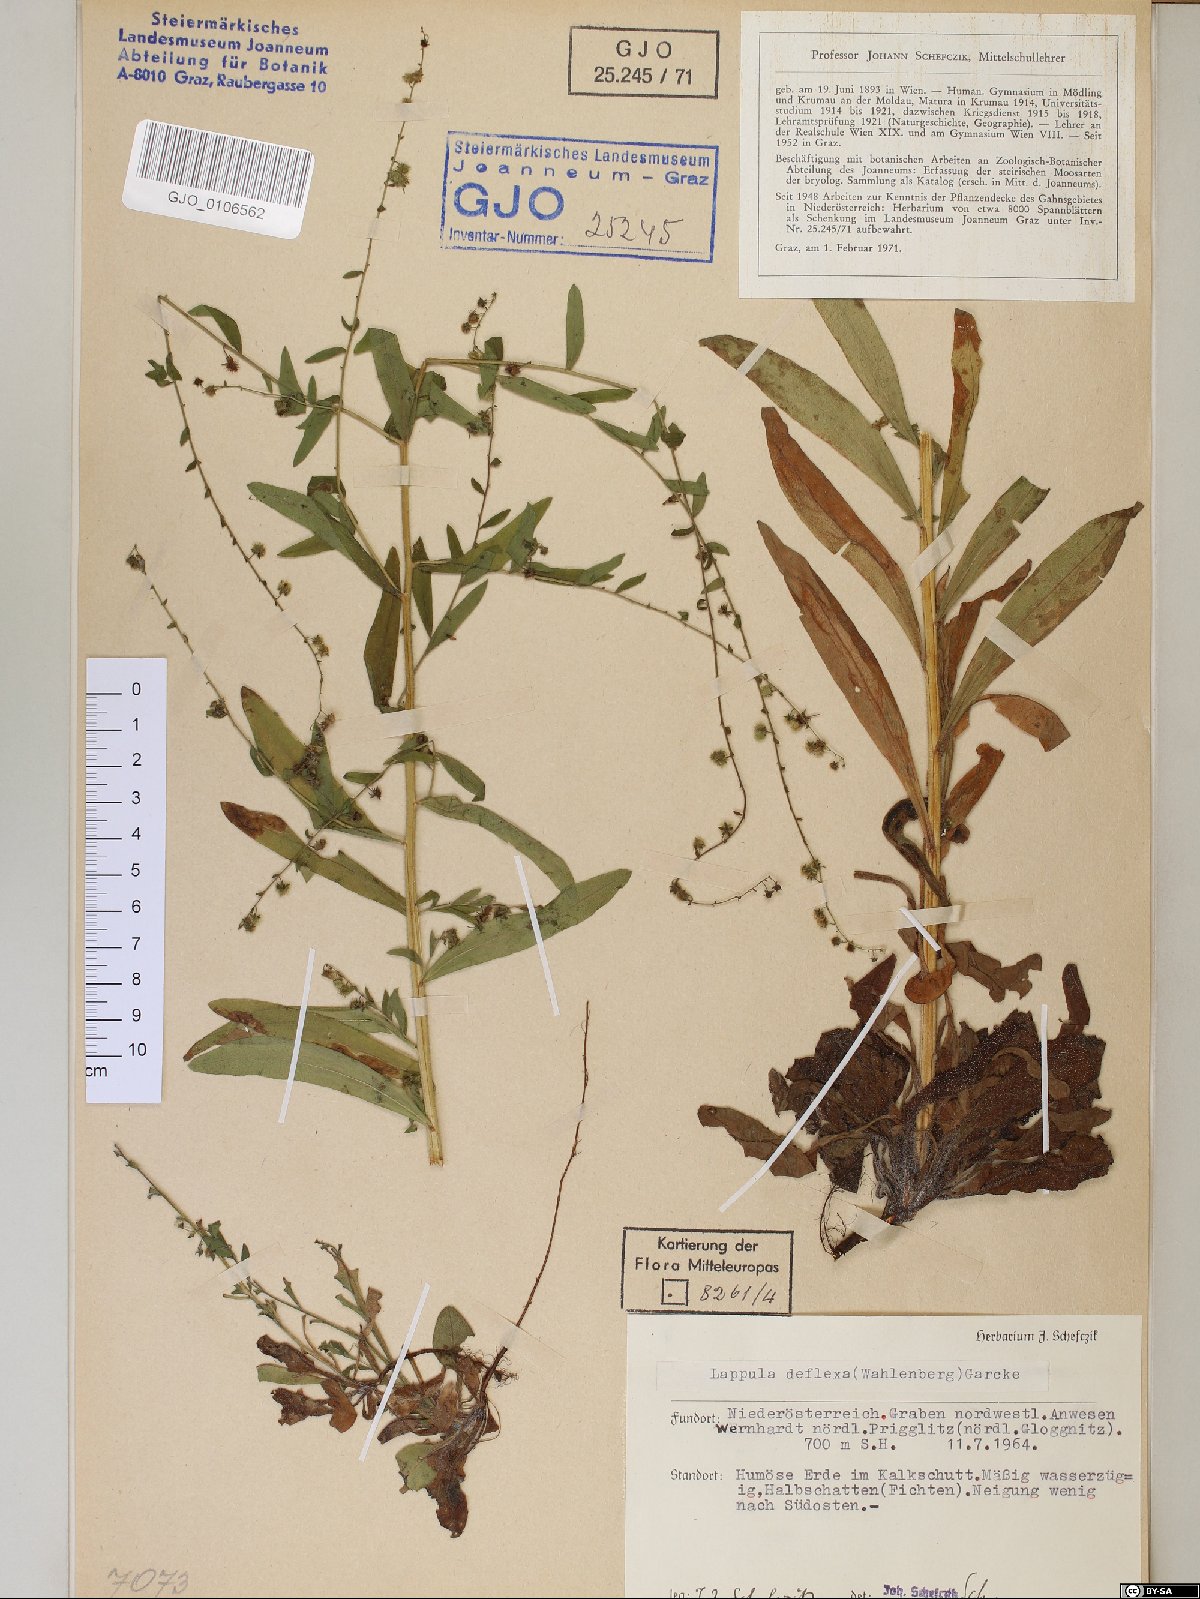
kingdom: Plantae
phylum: Tracheophyta
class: Magnoliopsida
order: Boraginales
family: Boraginaceae
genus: Hackelia
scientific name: Hackelia deflexa
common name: Nodding stickseed
